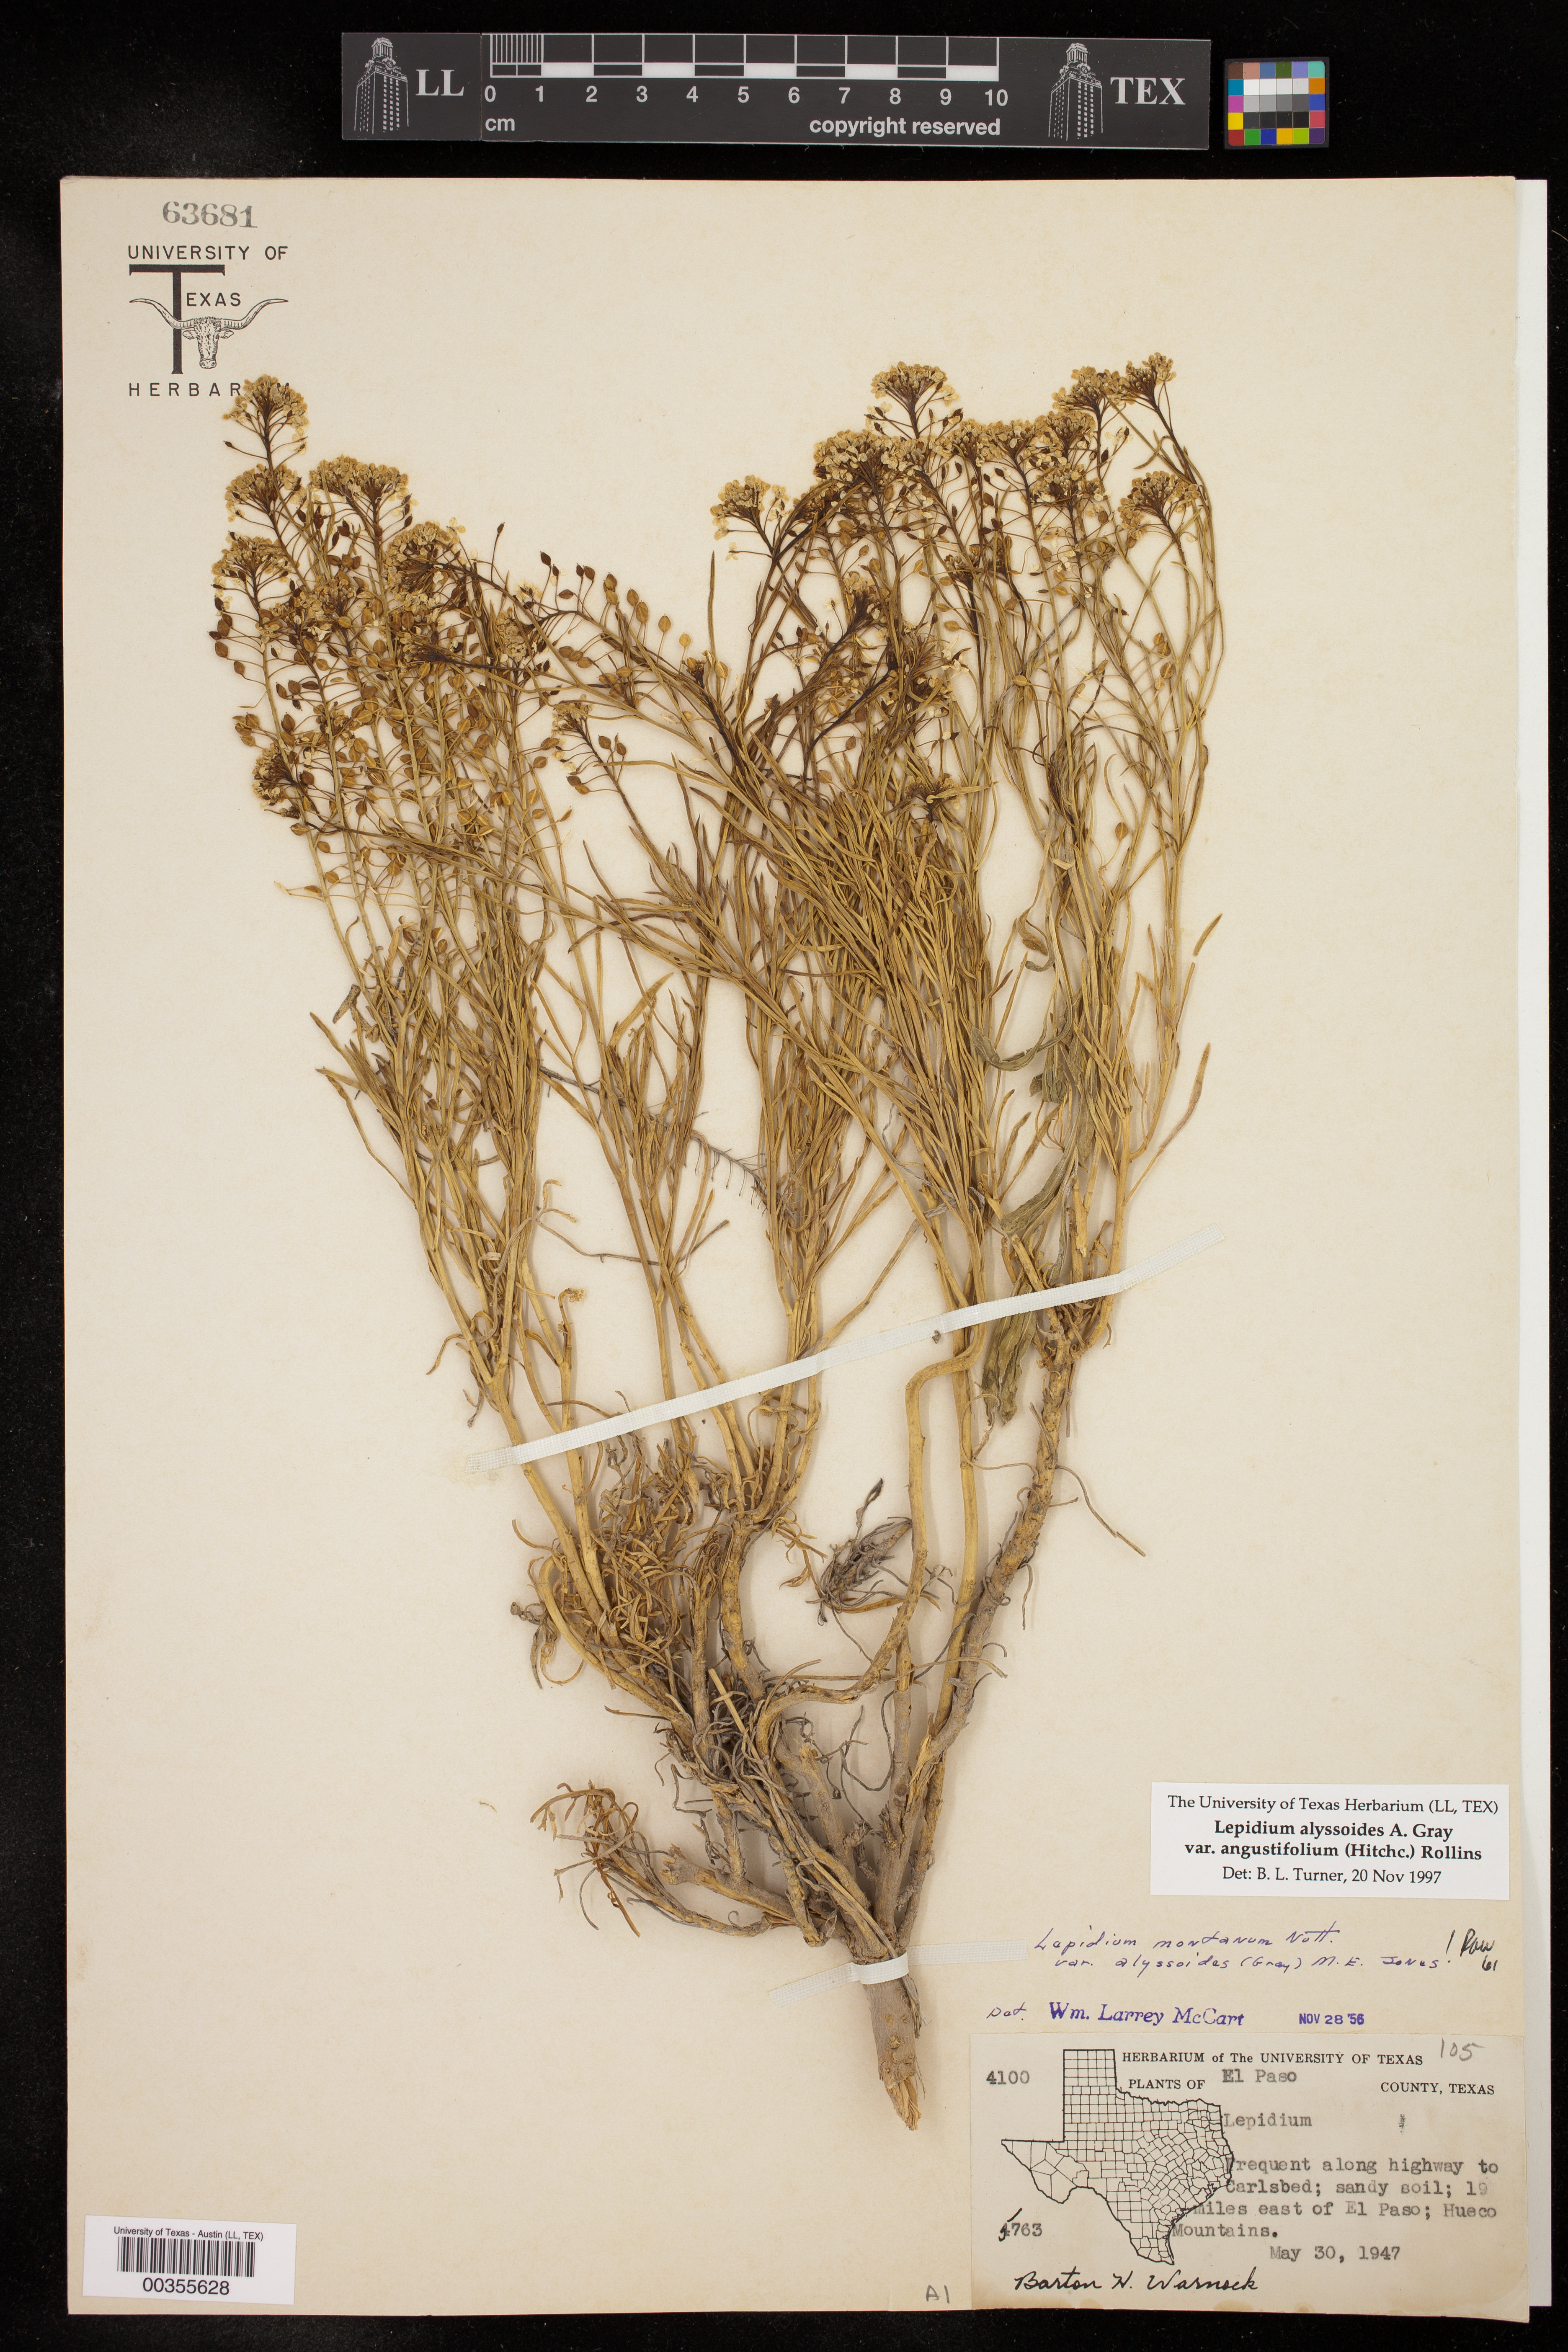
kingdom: Plantae
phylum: Tracheophyta
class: Magnoliopsida
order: Brassicales
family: Brassicaceae
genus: Lepidium
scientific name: Lepidium alyssoides
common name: Mesa pepperweed
